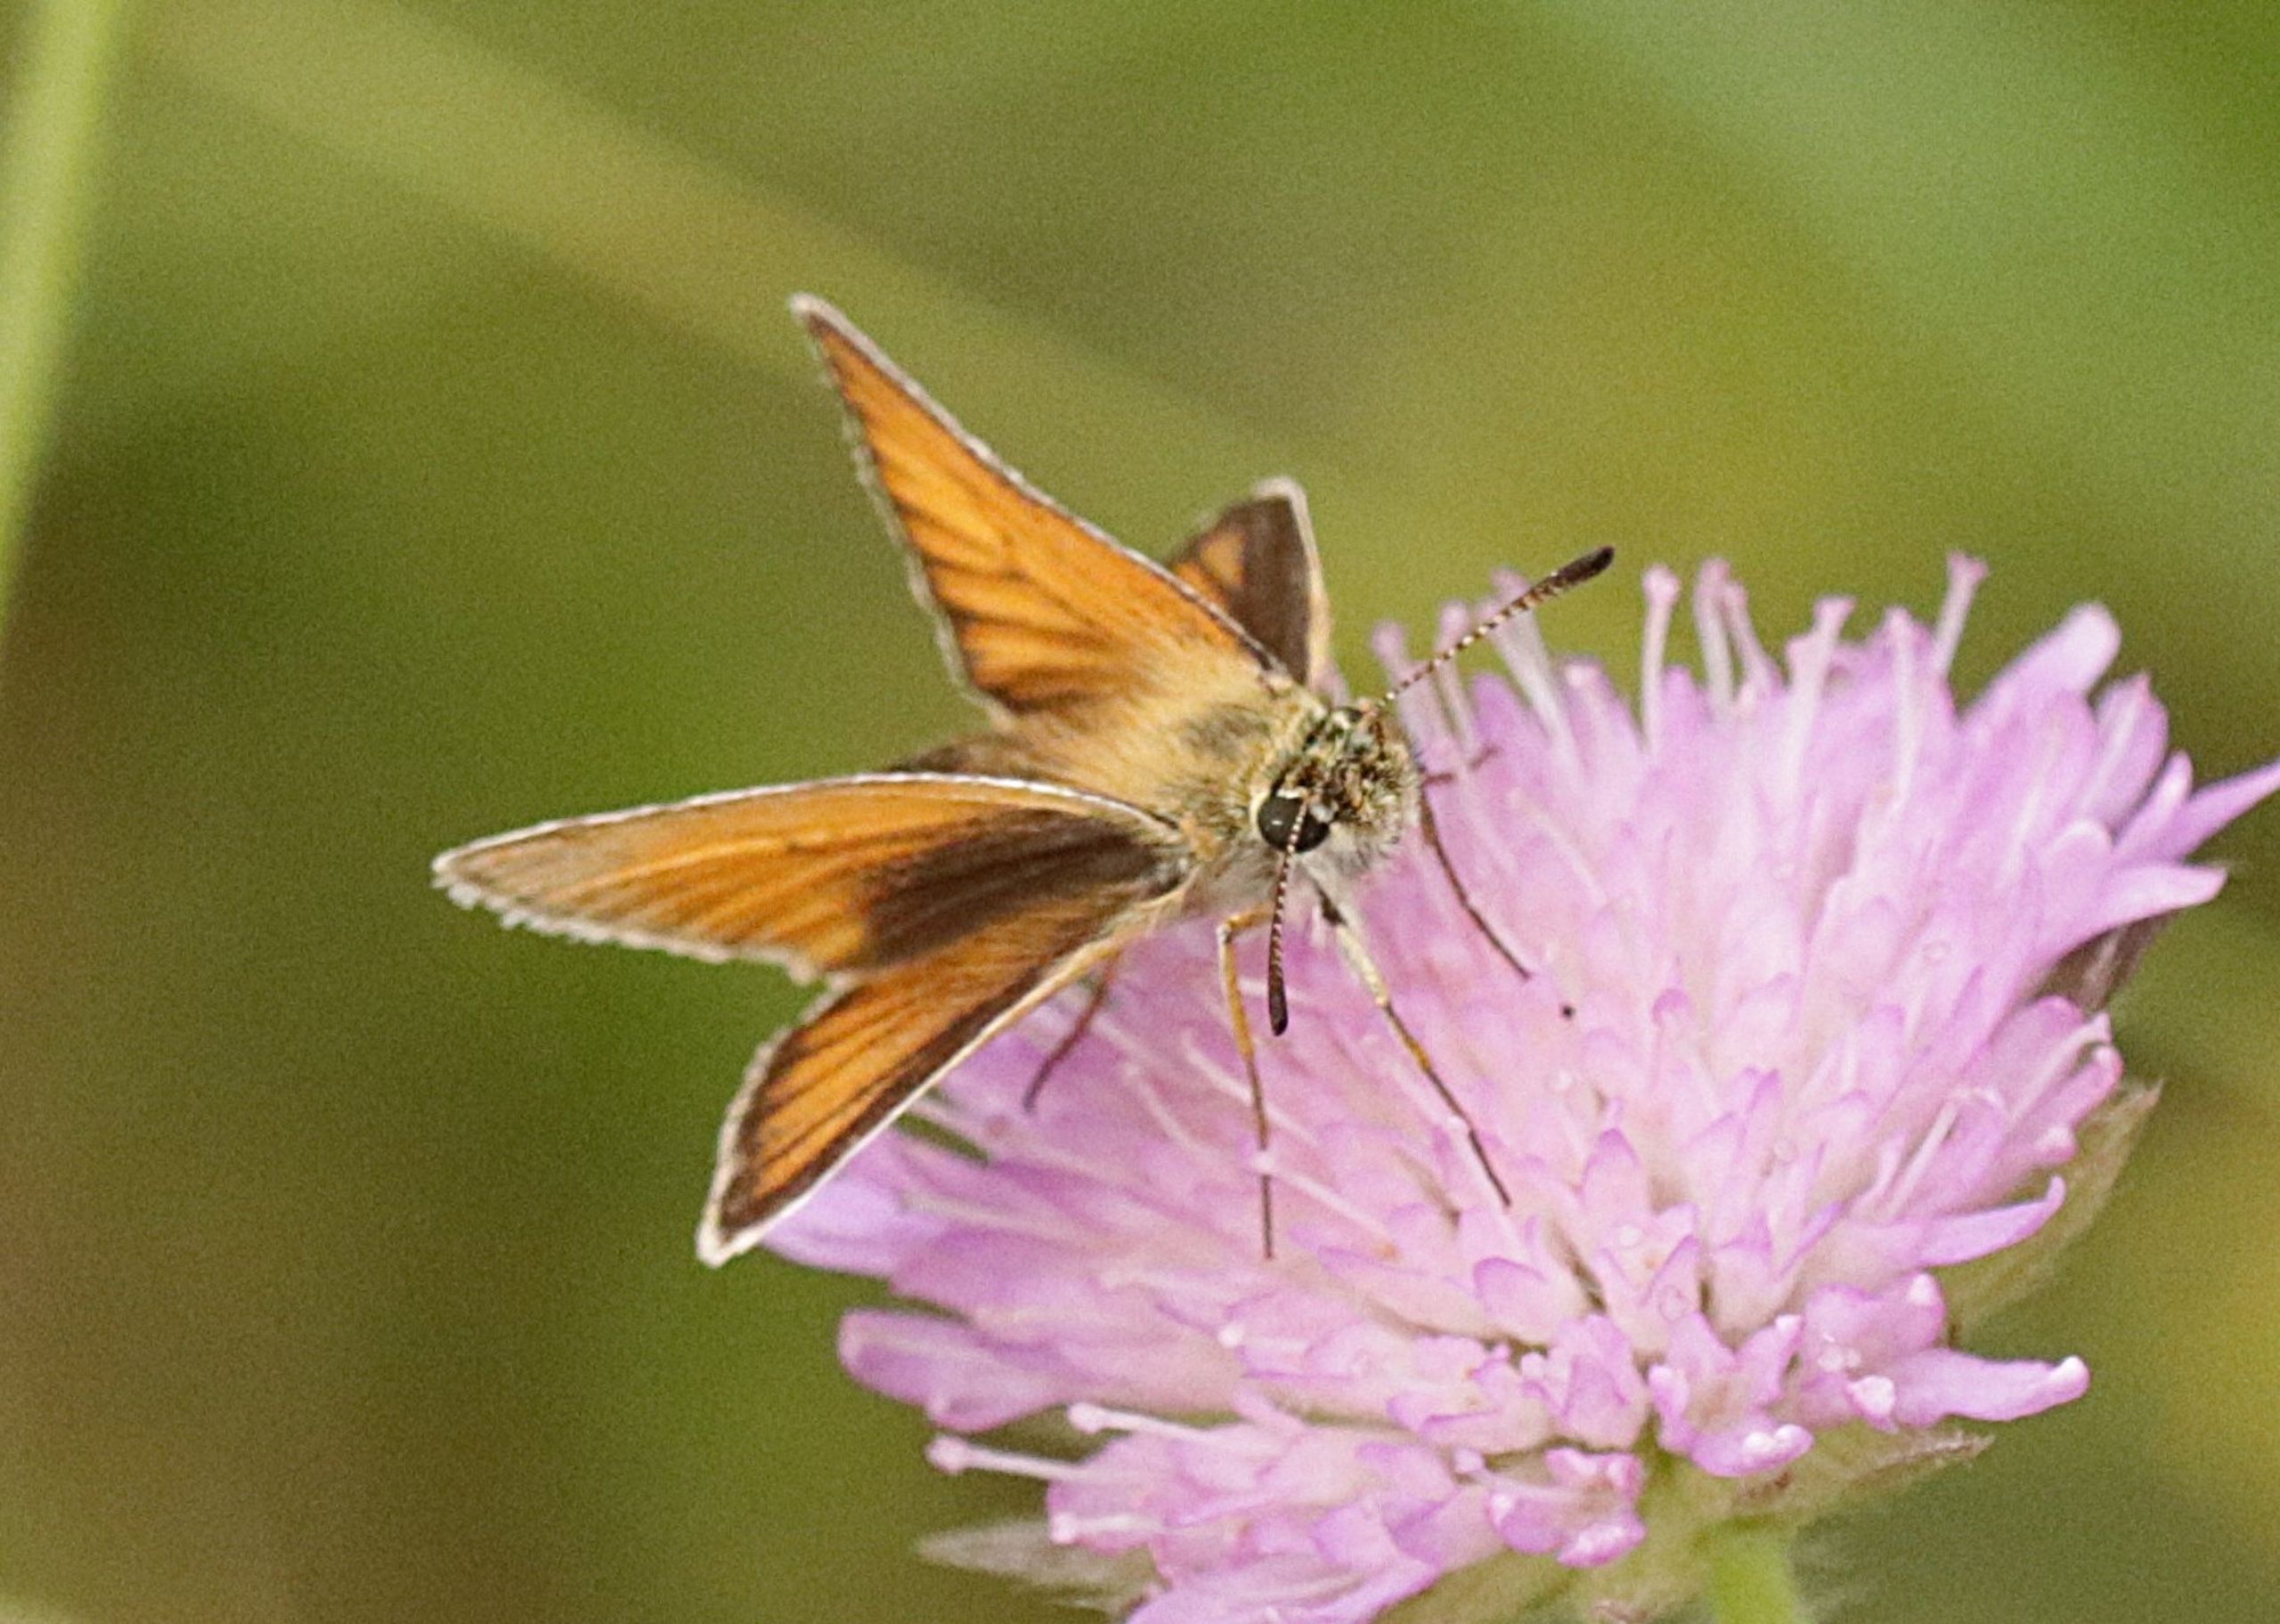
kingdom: Animalia
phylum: Arthropoda
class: Insecta
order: Lepidoptera
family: Hesperiidae
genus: Thymelicus
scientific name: Thymelicus lineola
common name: Stregbredpande
